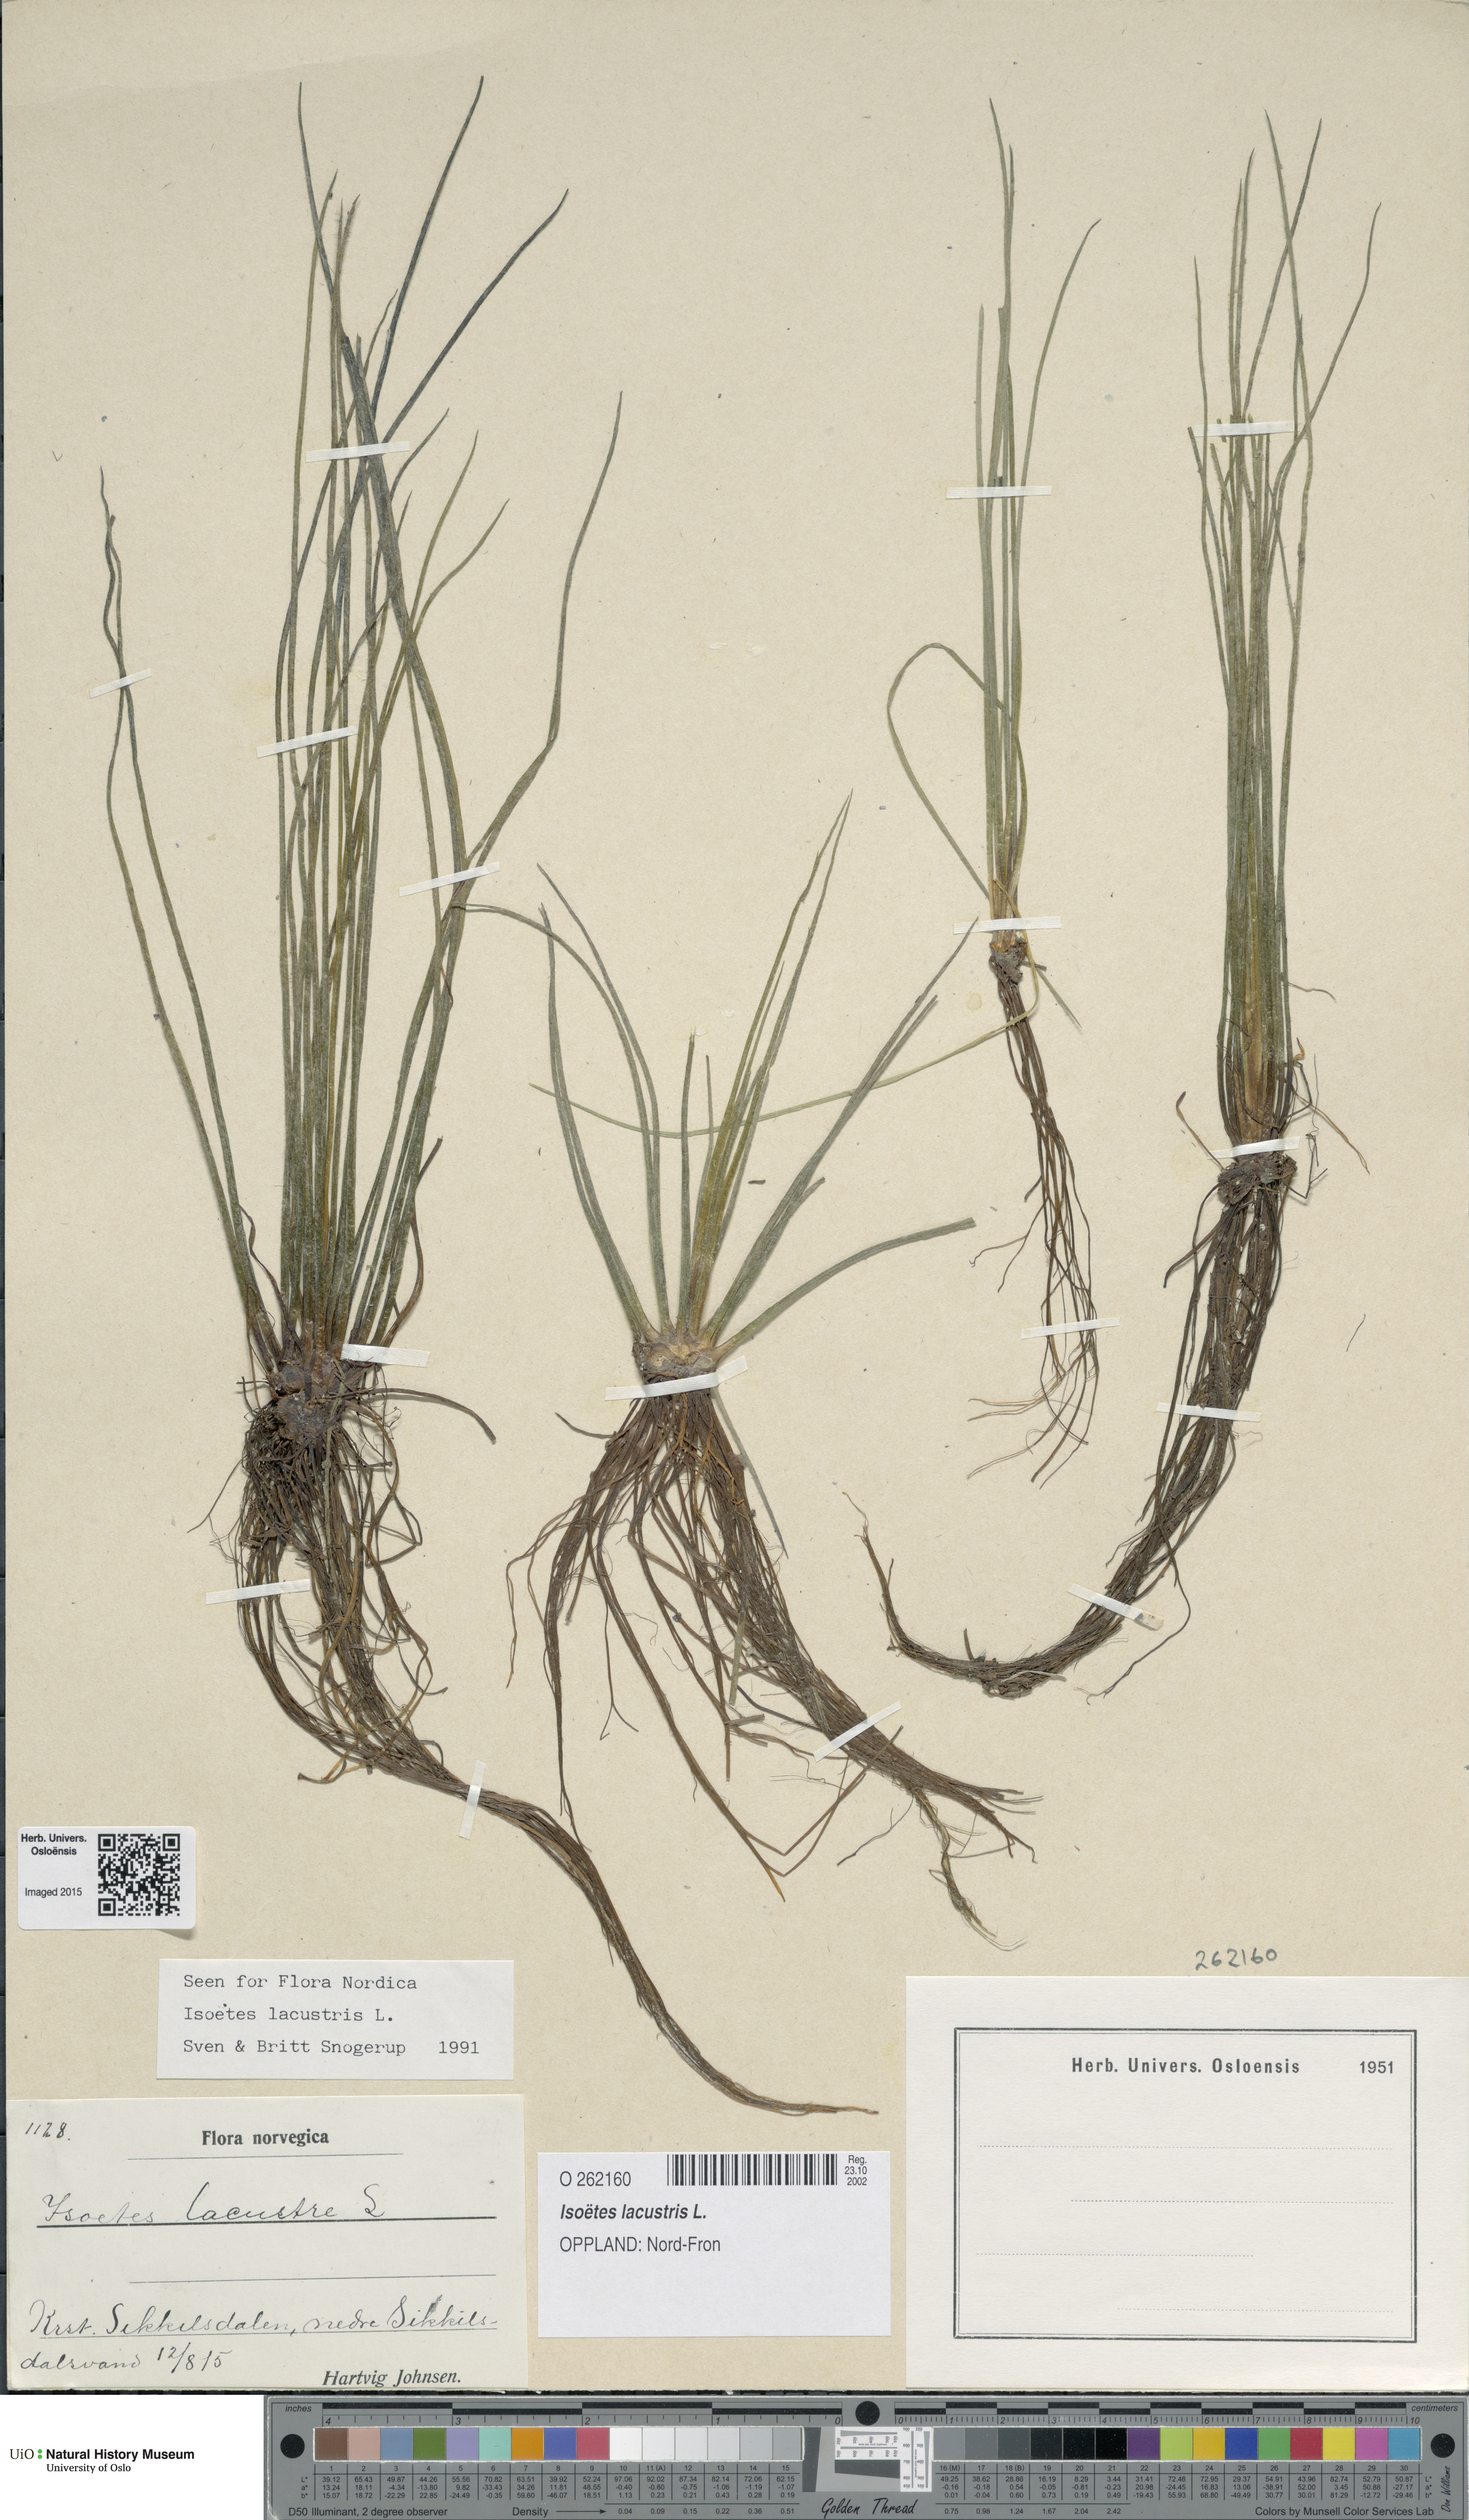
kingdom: Plantae
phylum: Tracheophyta
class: Lycopodiopsida
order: Isoetales
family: Isoetaceae
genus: Isoetes
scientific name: Isoetes lacustris
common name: Common quillwort
